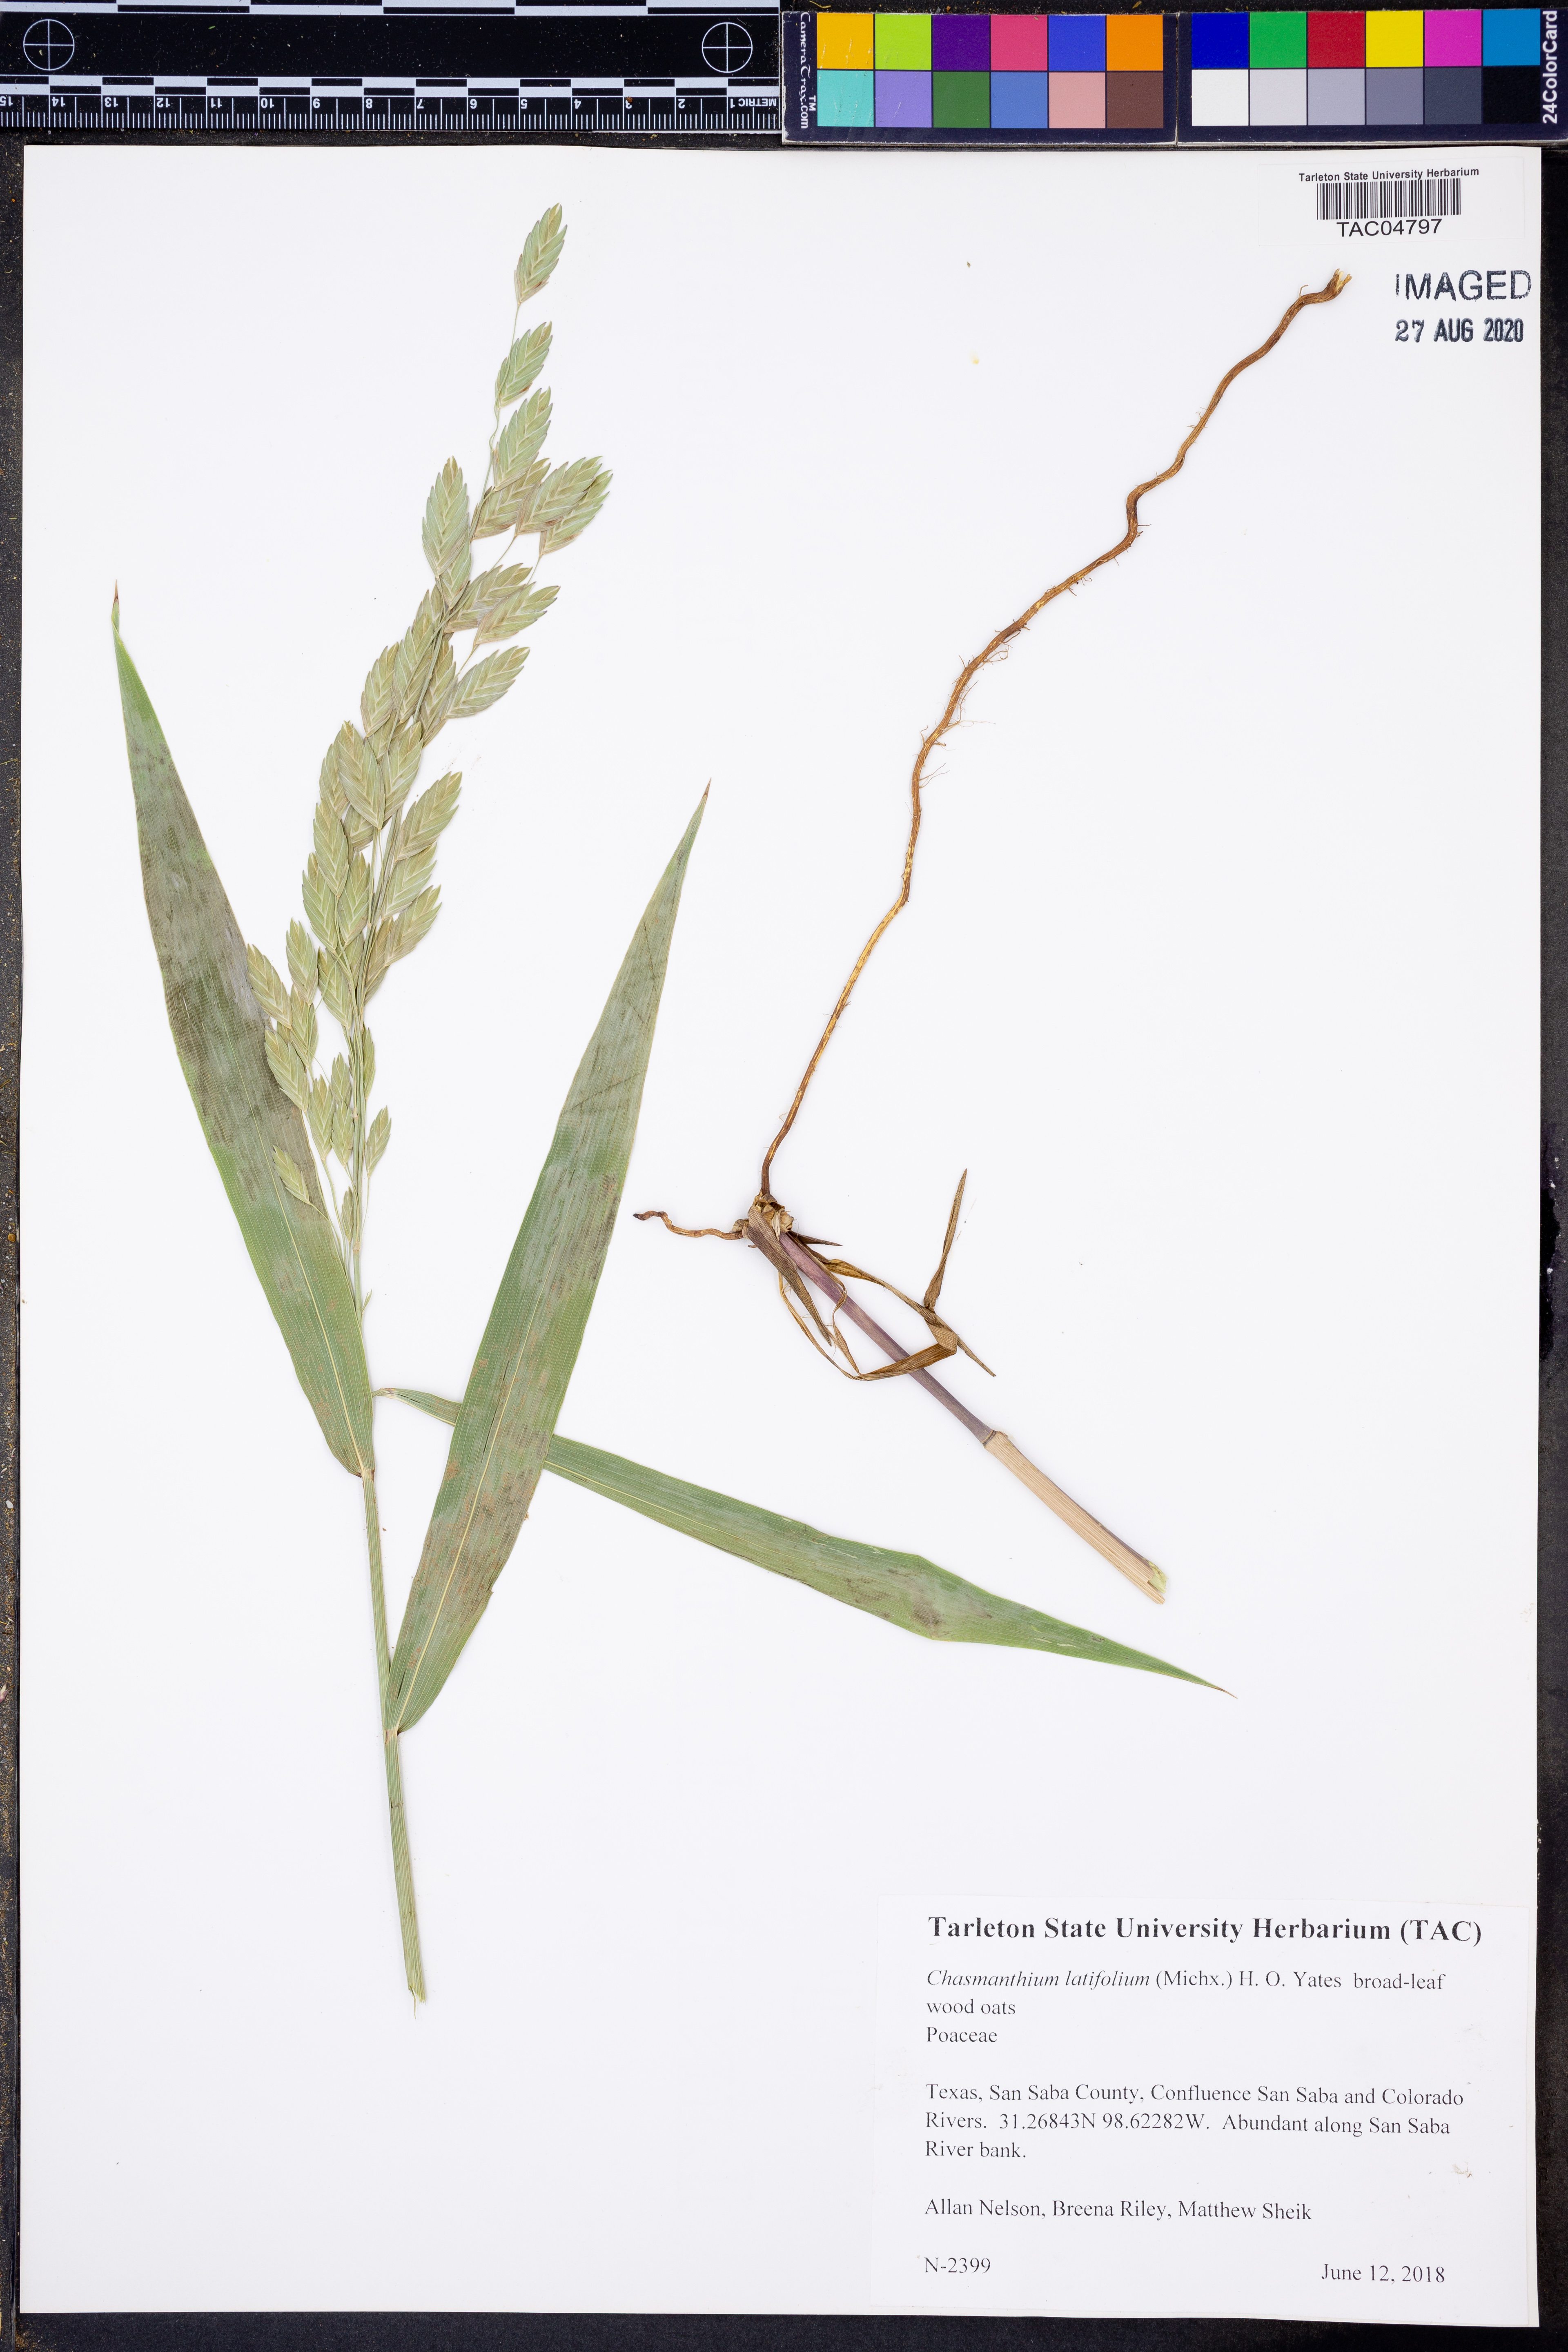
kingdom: Plantae
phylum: Tracheophyta
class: Liliopsida
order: Poales
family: Poaceae
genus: Chasmanthium
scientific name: Chasmanthium latifolium
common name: Broad-leaved chasmanthium
